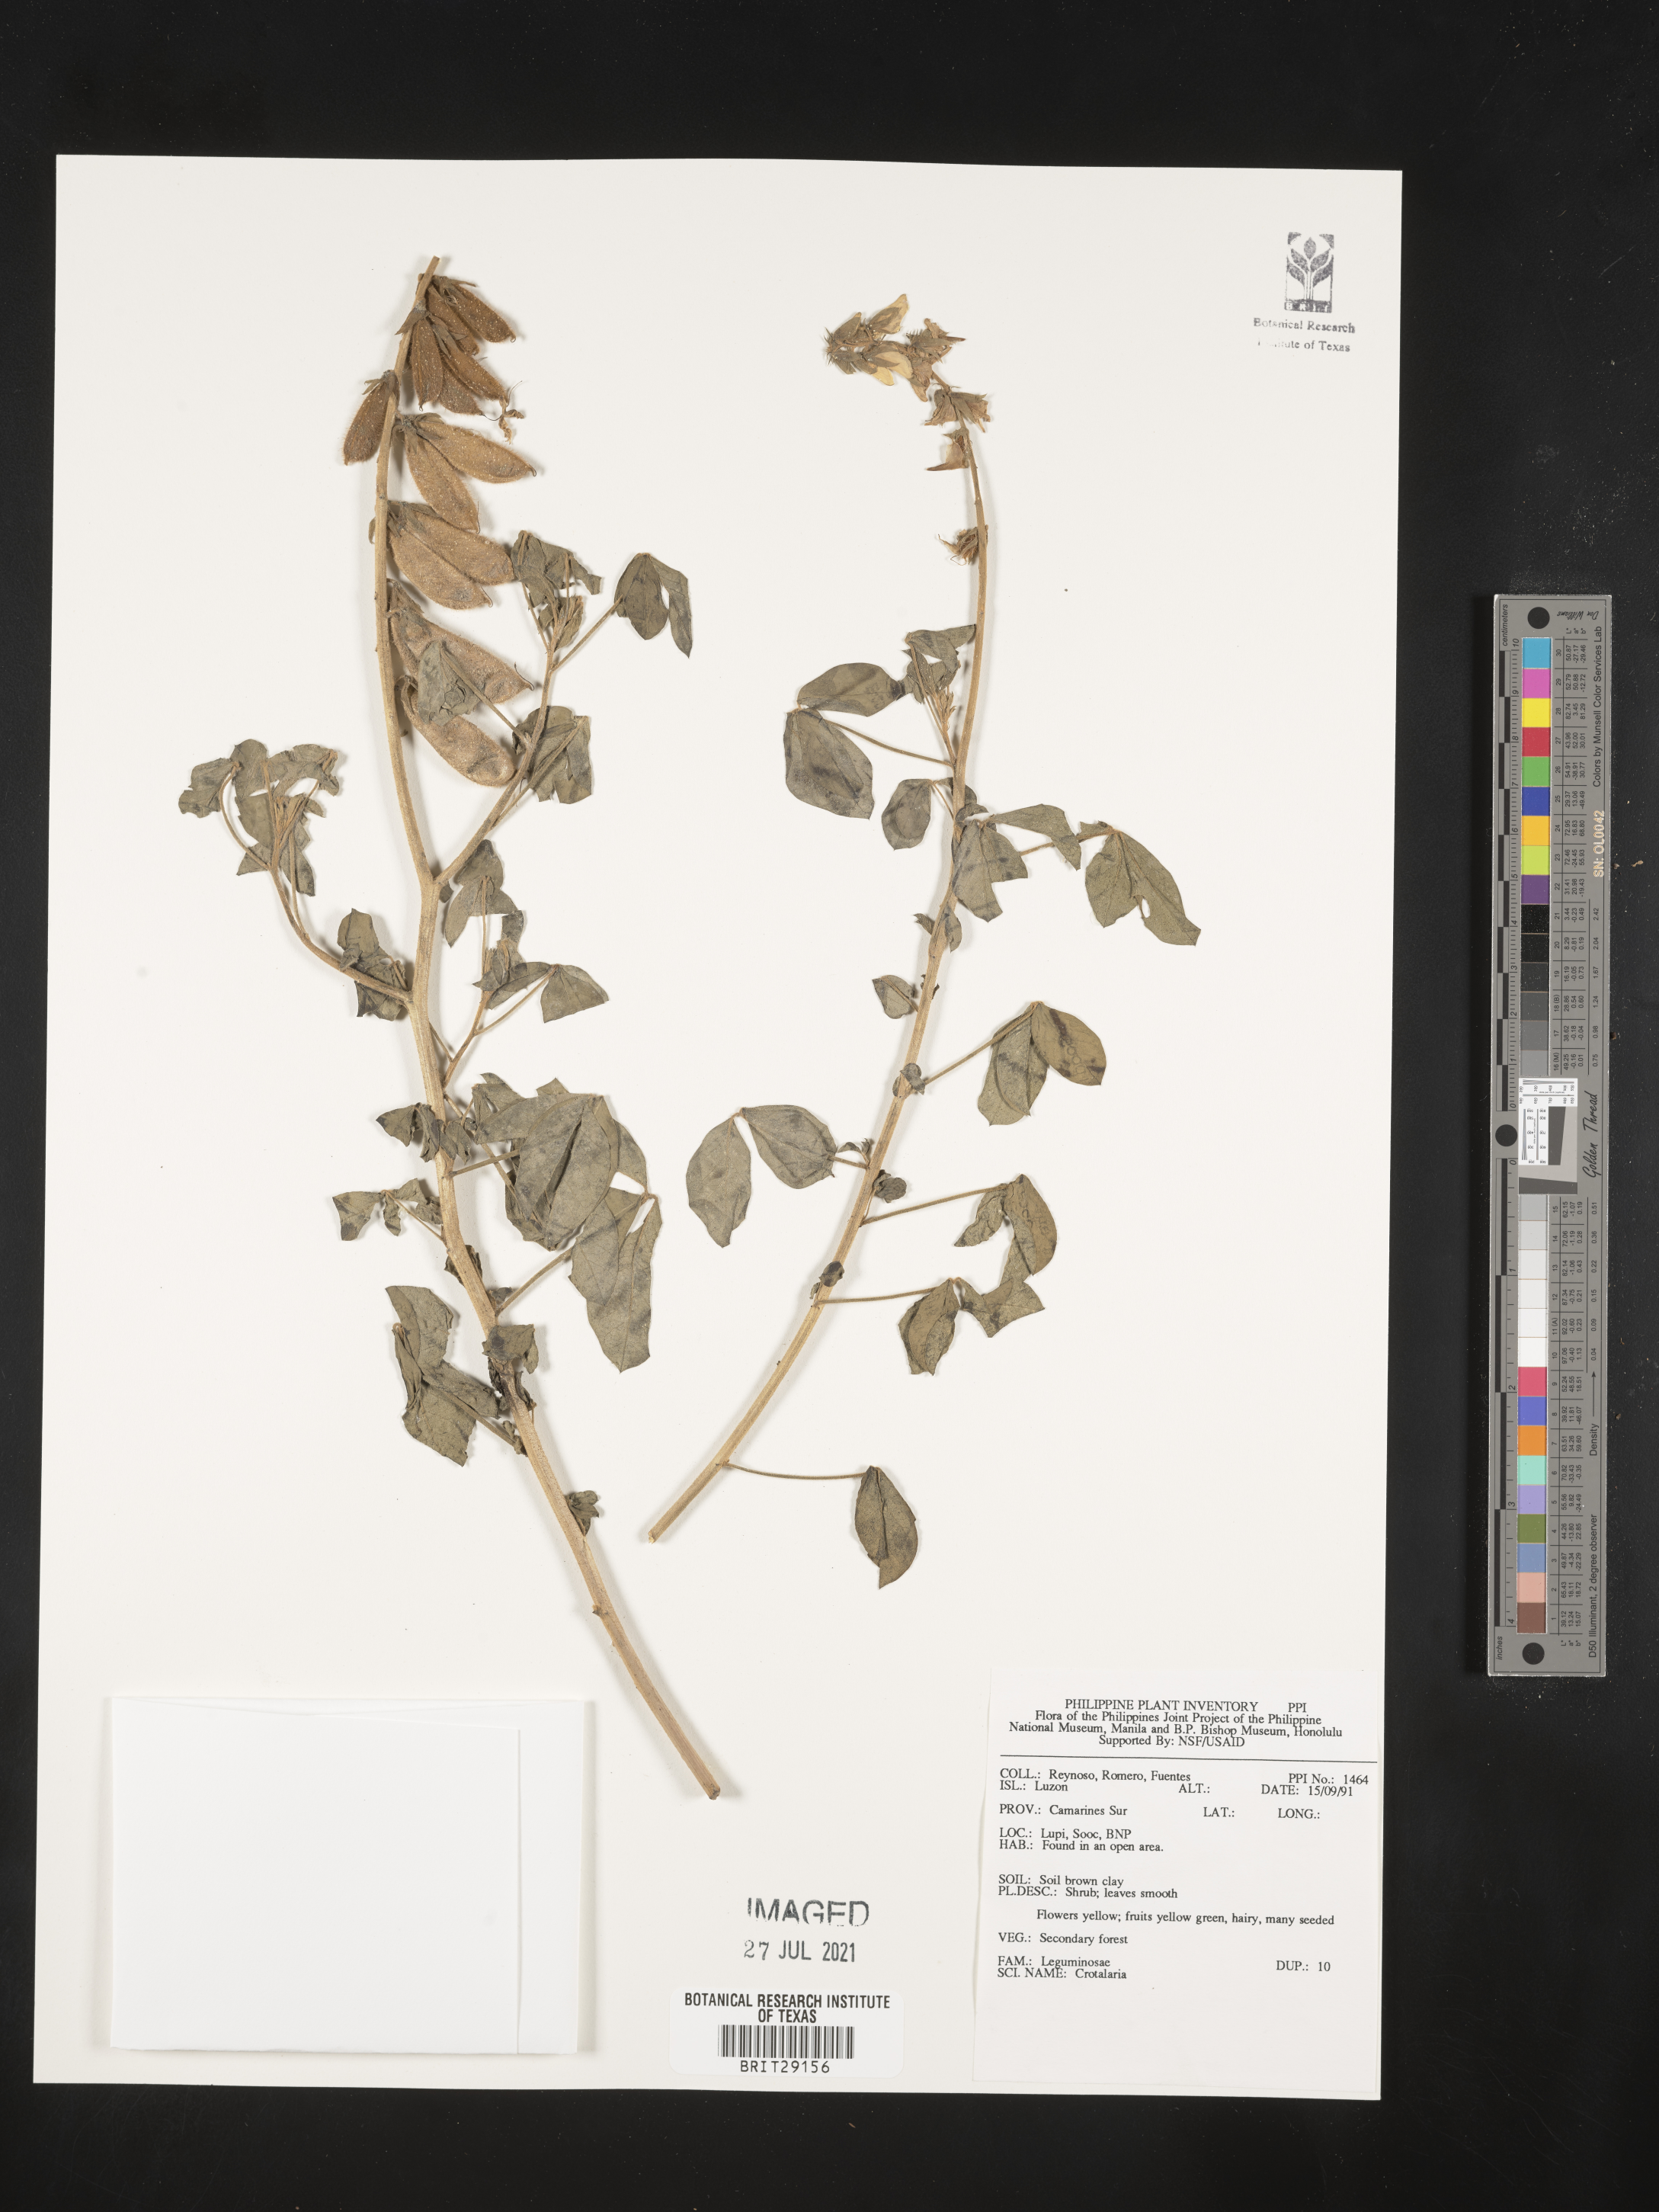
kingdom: Plantae
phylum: Tracheophyta
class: Magnoliopsida
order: Fabales
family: Fabaceae
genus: Crotalaria
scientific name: Crotalaria
